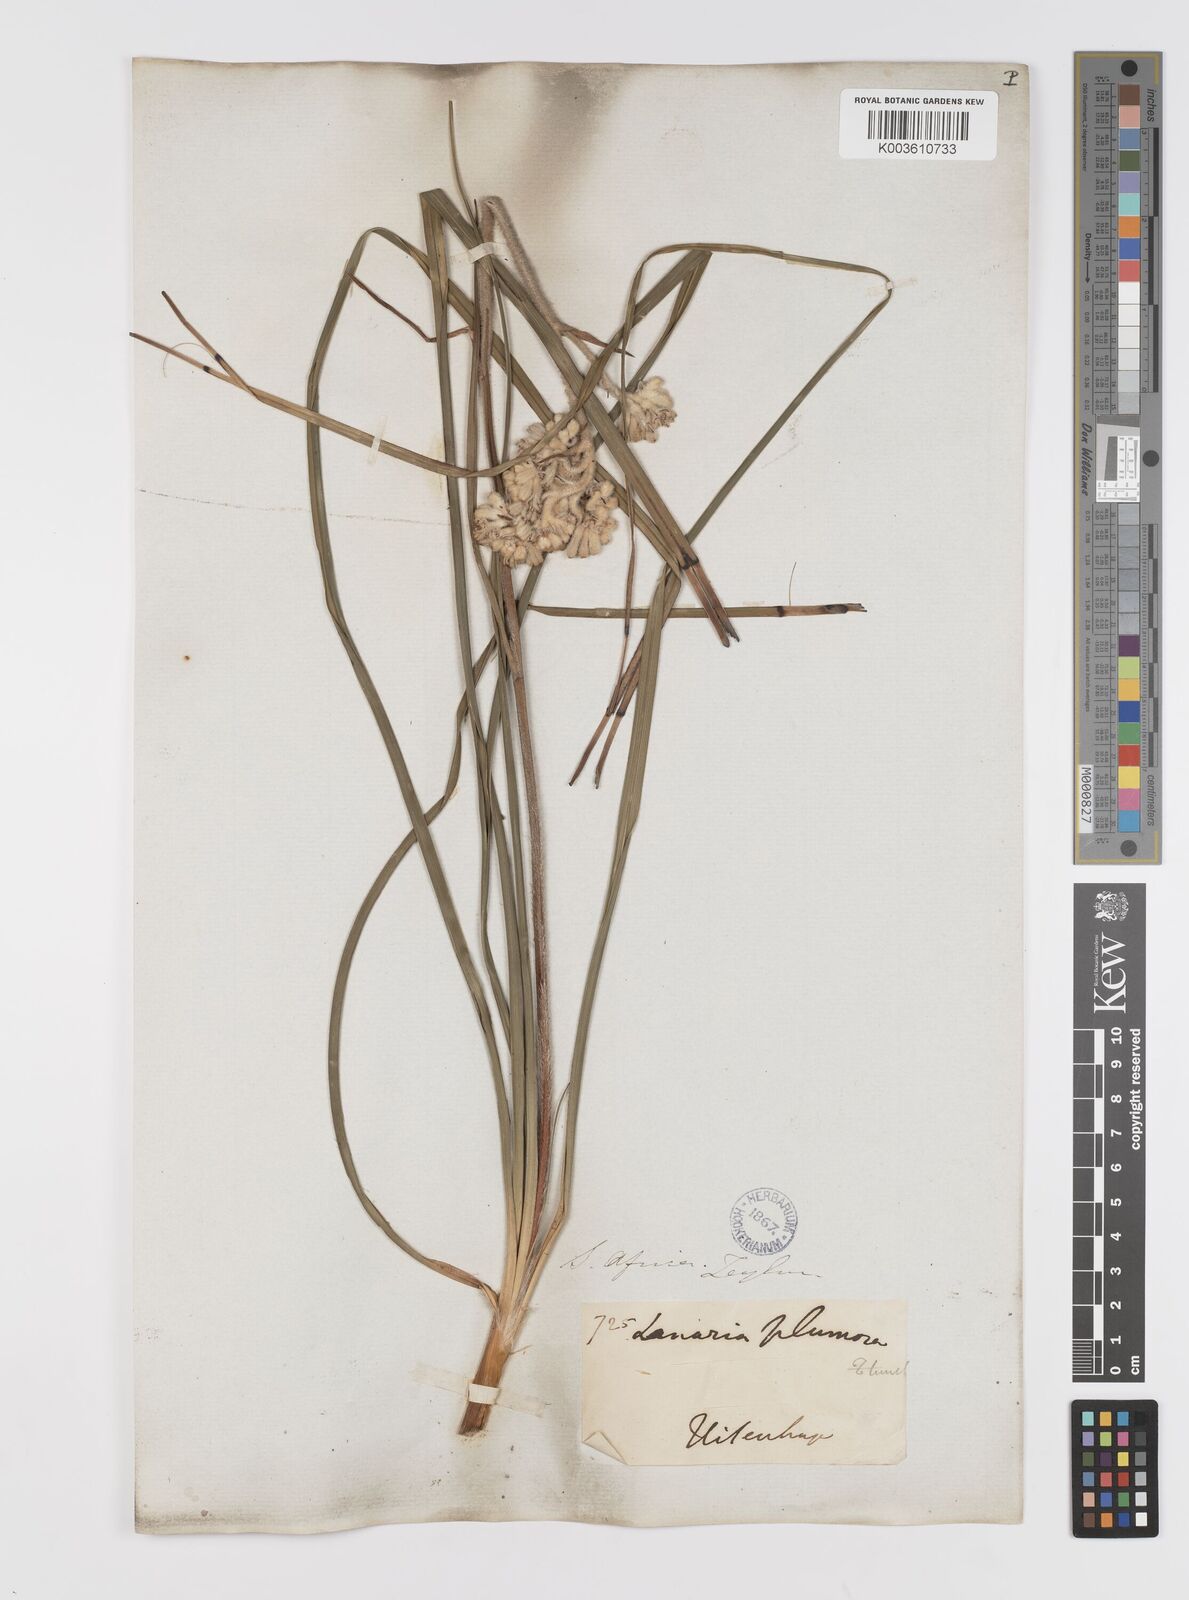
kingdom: Plantae
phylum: Tracheophyta
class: Liliopsida
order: Asparagales
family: Lanariaceae
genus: Lanaria
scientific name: Lanaria lanata
